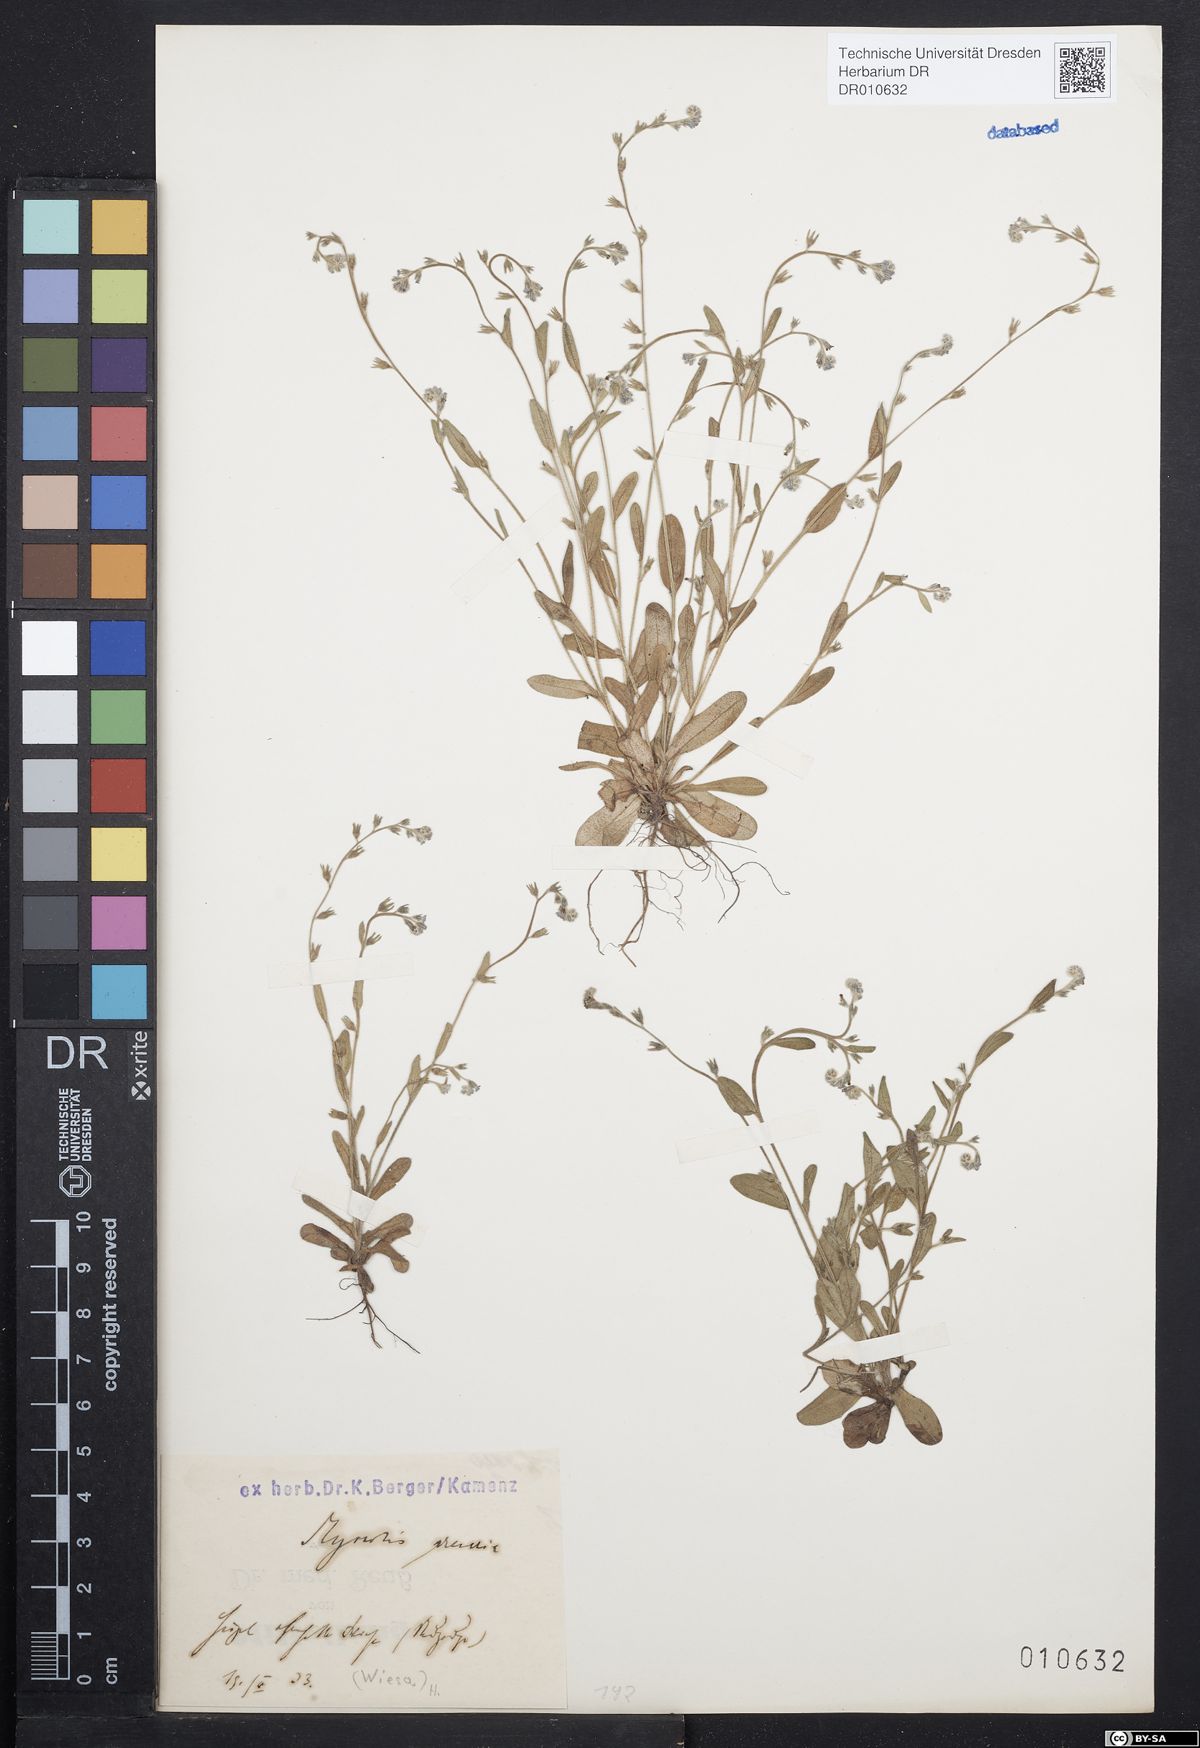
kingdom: Plantae
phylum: Tracheophyta
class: Magnoliopsida
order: Boraginales
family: Boraginaceae
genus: Myosotis
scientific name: Myosotis stricta
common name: Strict forget-me-not
